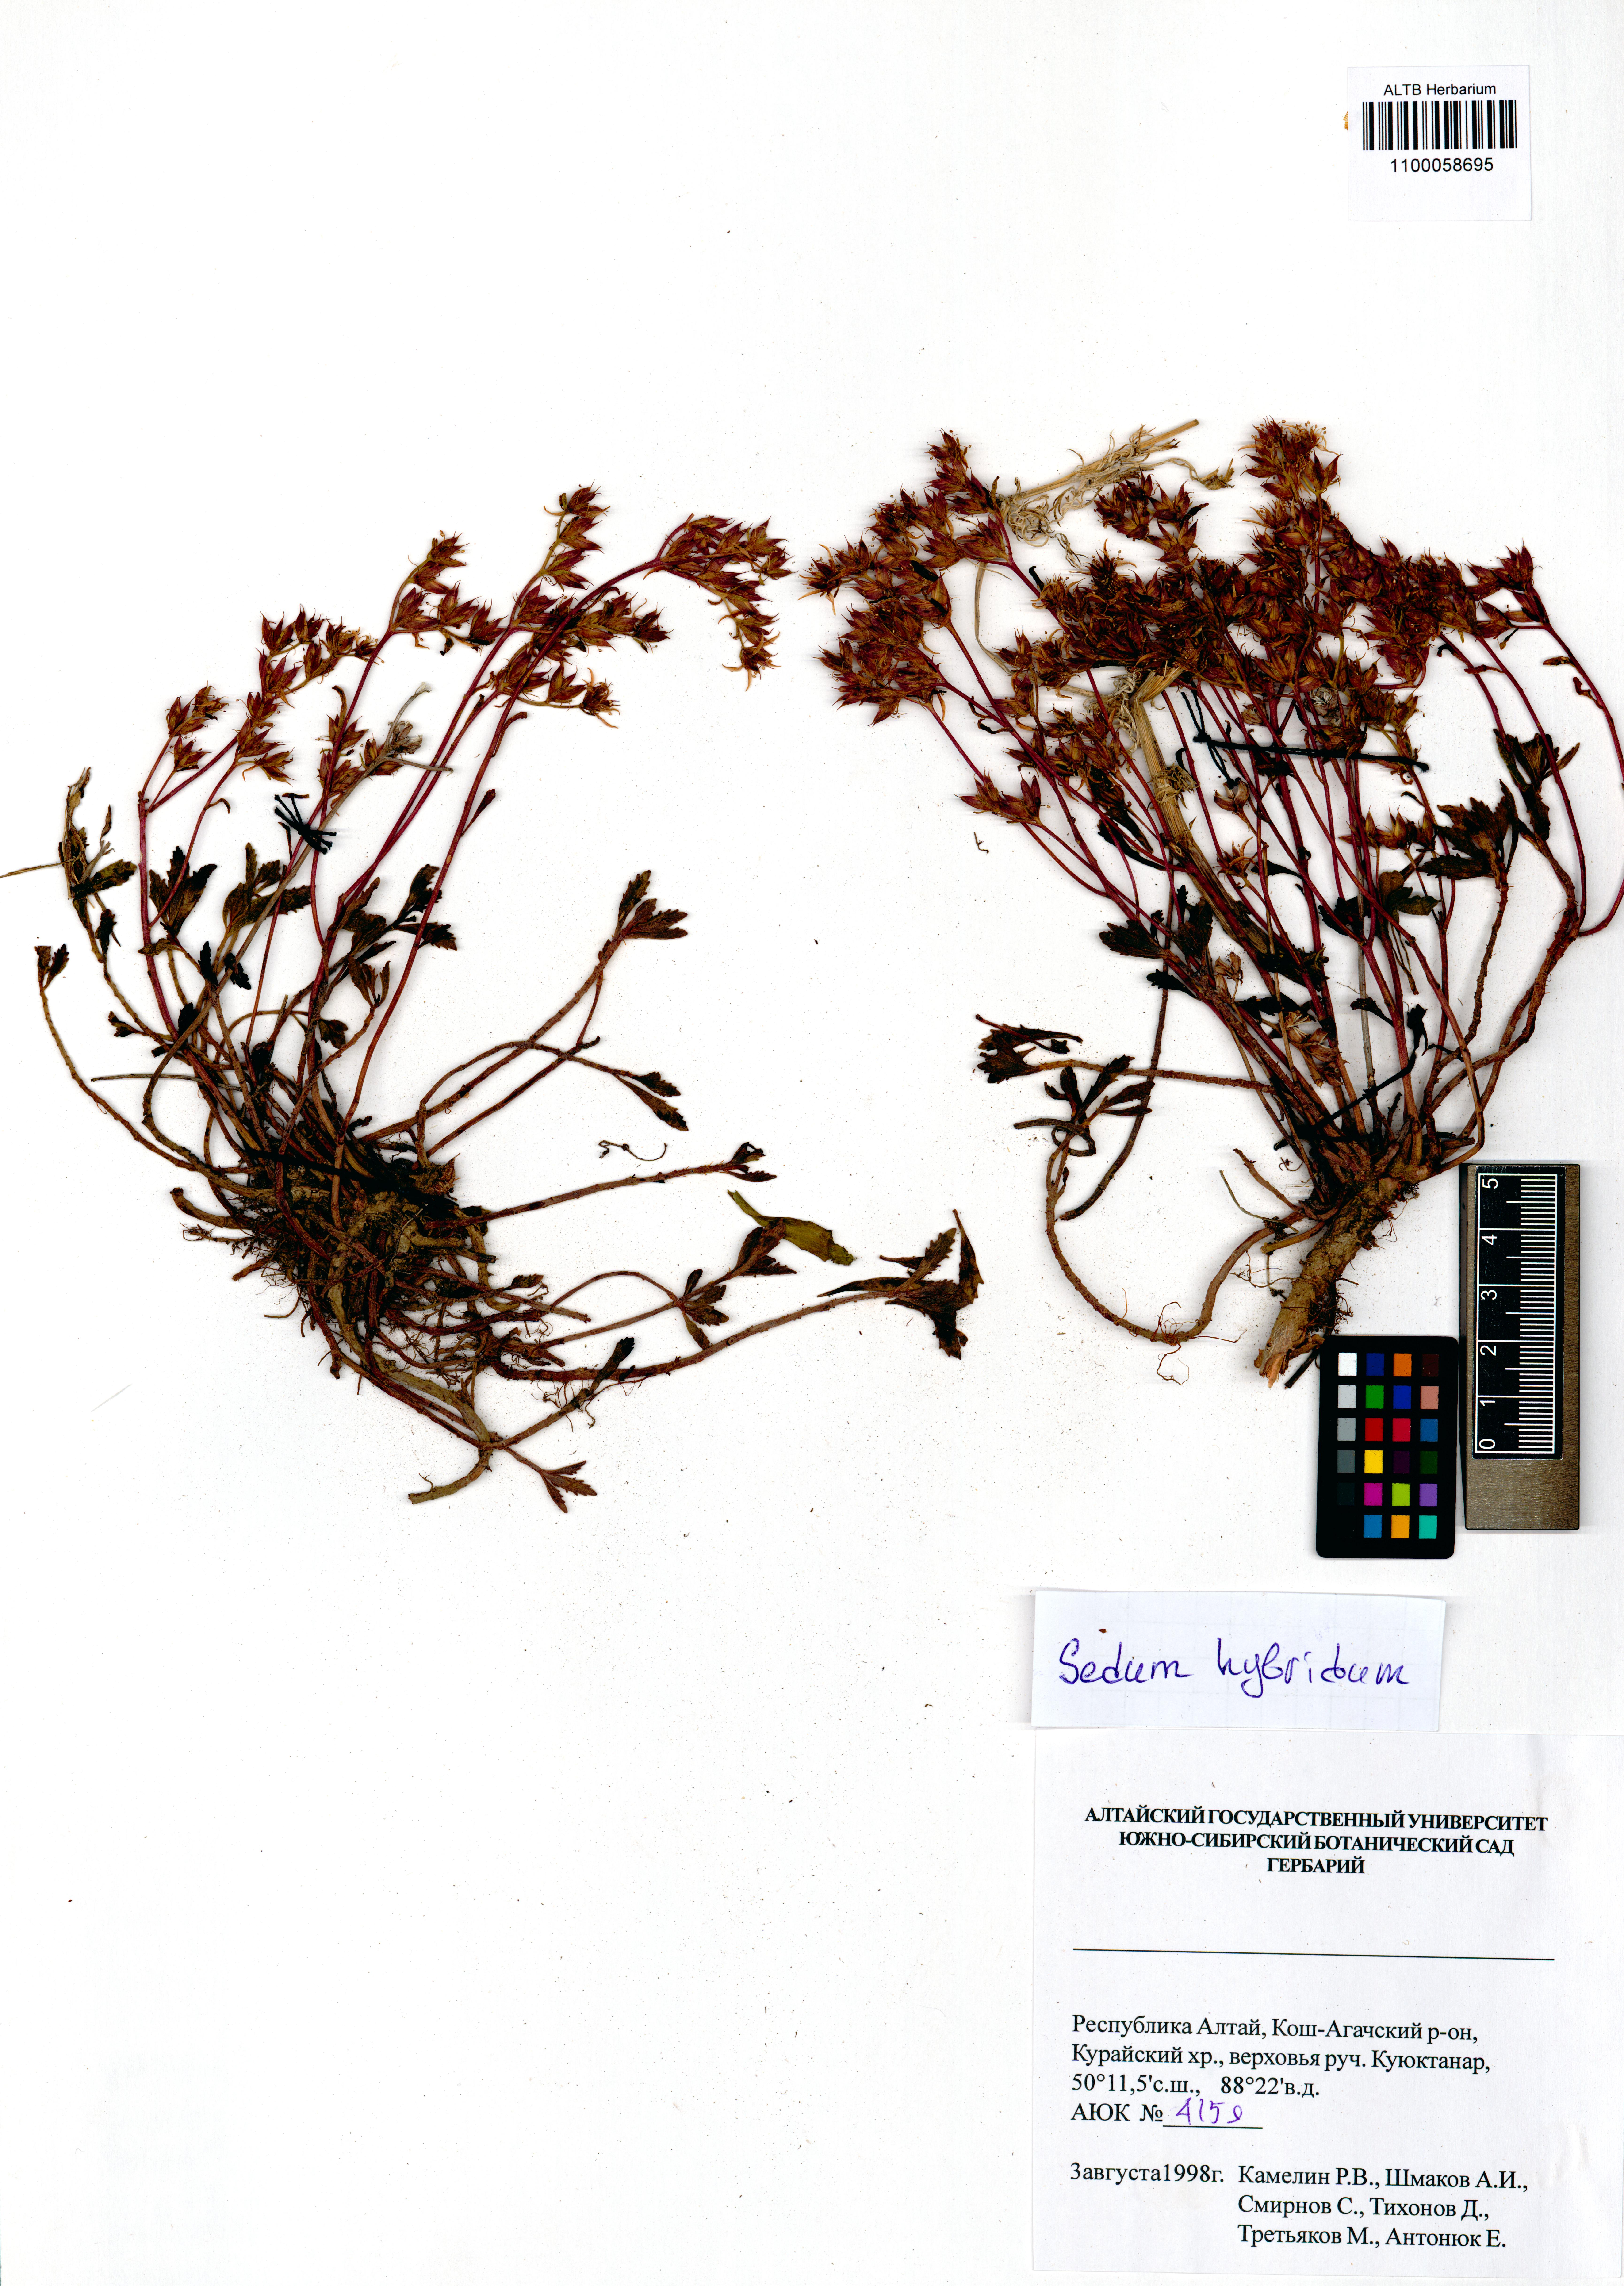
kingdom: Plantae
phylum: Tracheophyta
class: Magnoliopsida
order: Saxifragales
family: Crassulaceae
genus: Phedimus
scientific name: Phedimus hybridus
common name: Hybrid stonecrop
